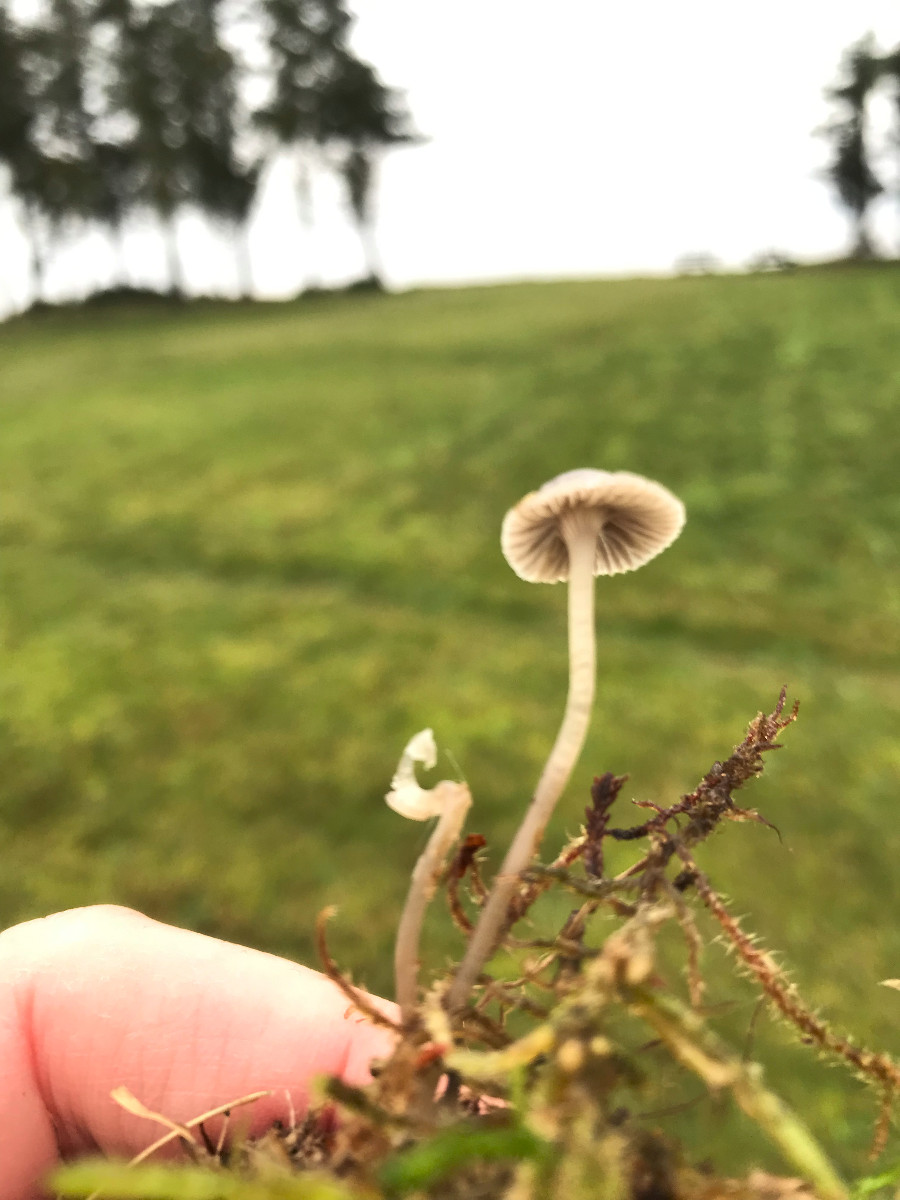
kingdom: Fungi
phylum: Basidiomycota
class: Agaricomycetes
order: Agaricales
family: Mycenaceae
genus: Mycena
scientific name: Mycena
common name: huesvamp
